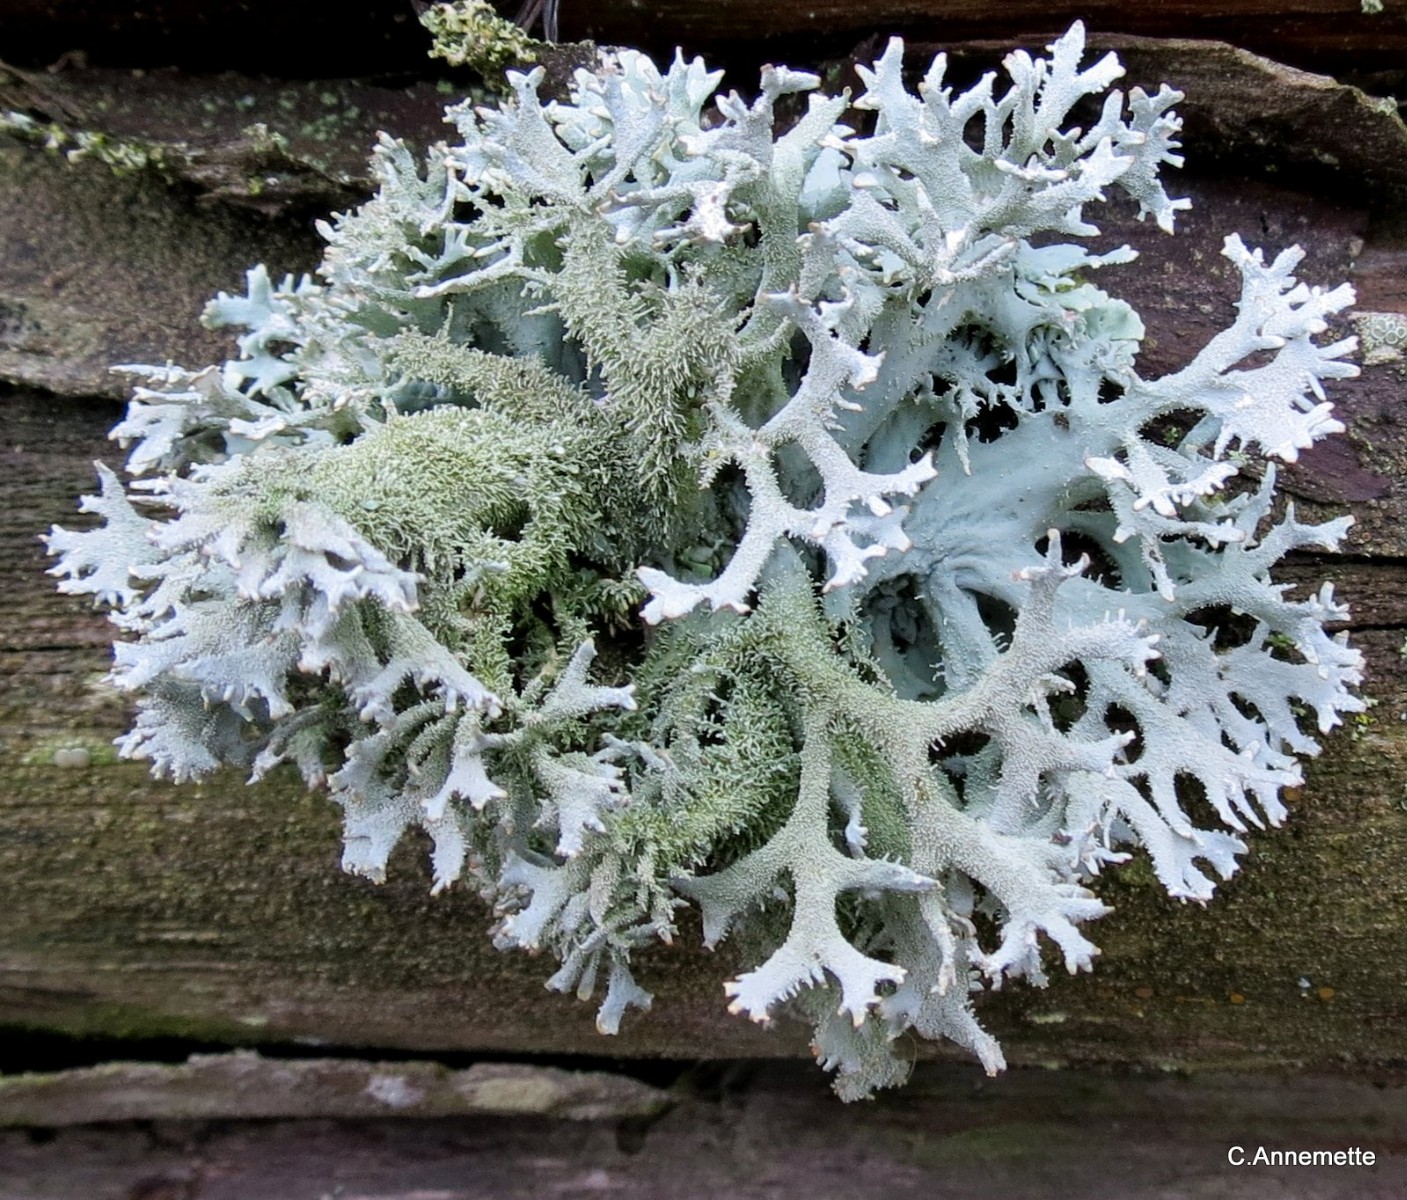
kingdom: Fungi
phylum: Ascomycota
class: Lecanoromycetes
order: Lecanorales
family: Parmeliaceae
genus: Pseudevernia
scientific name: Pseudevernia furfuracea
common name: grå fyrrelav
